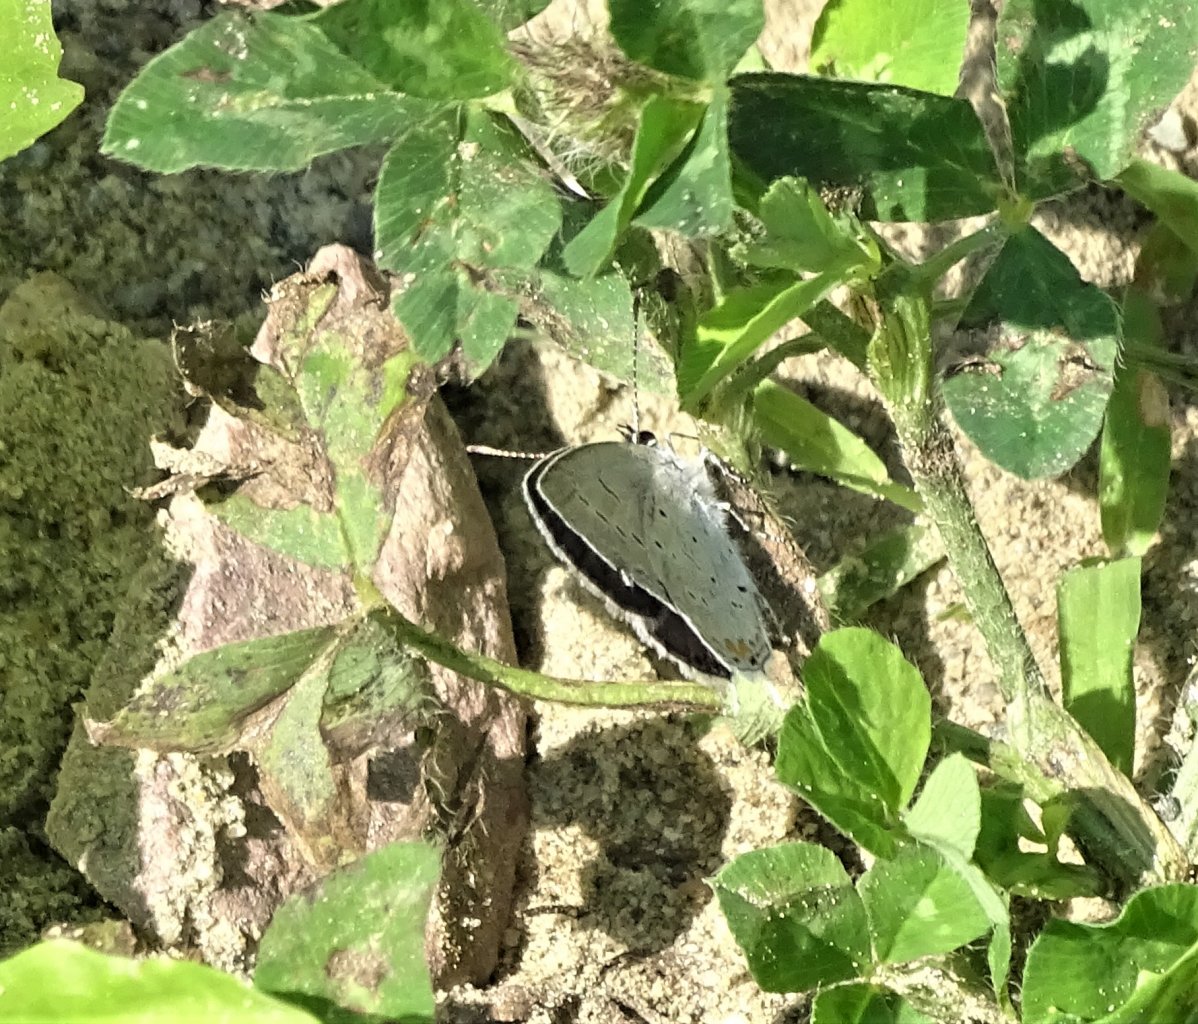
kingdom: Animalia
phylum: Arthropoda
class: Insecta
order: Lepidoptera
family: Lycaenidae
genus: Elkalyce
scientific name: Elkalyce comyntas
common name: Eastern Tailed-Blue
